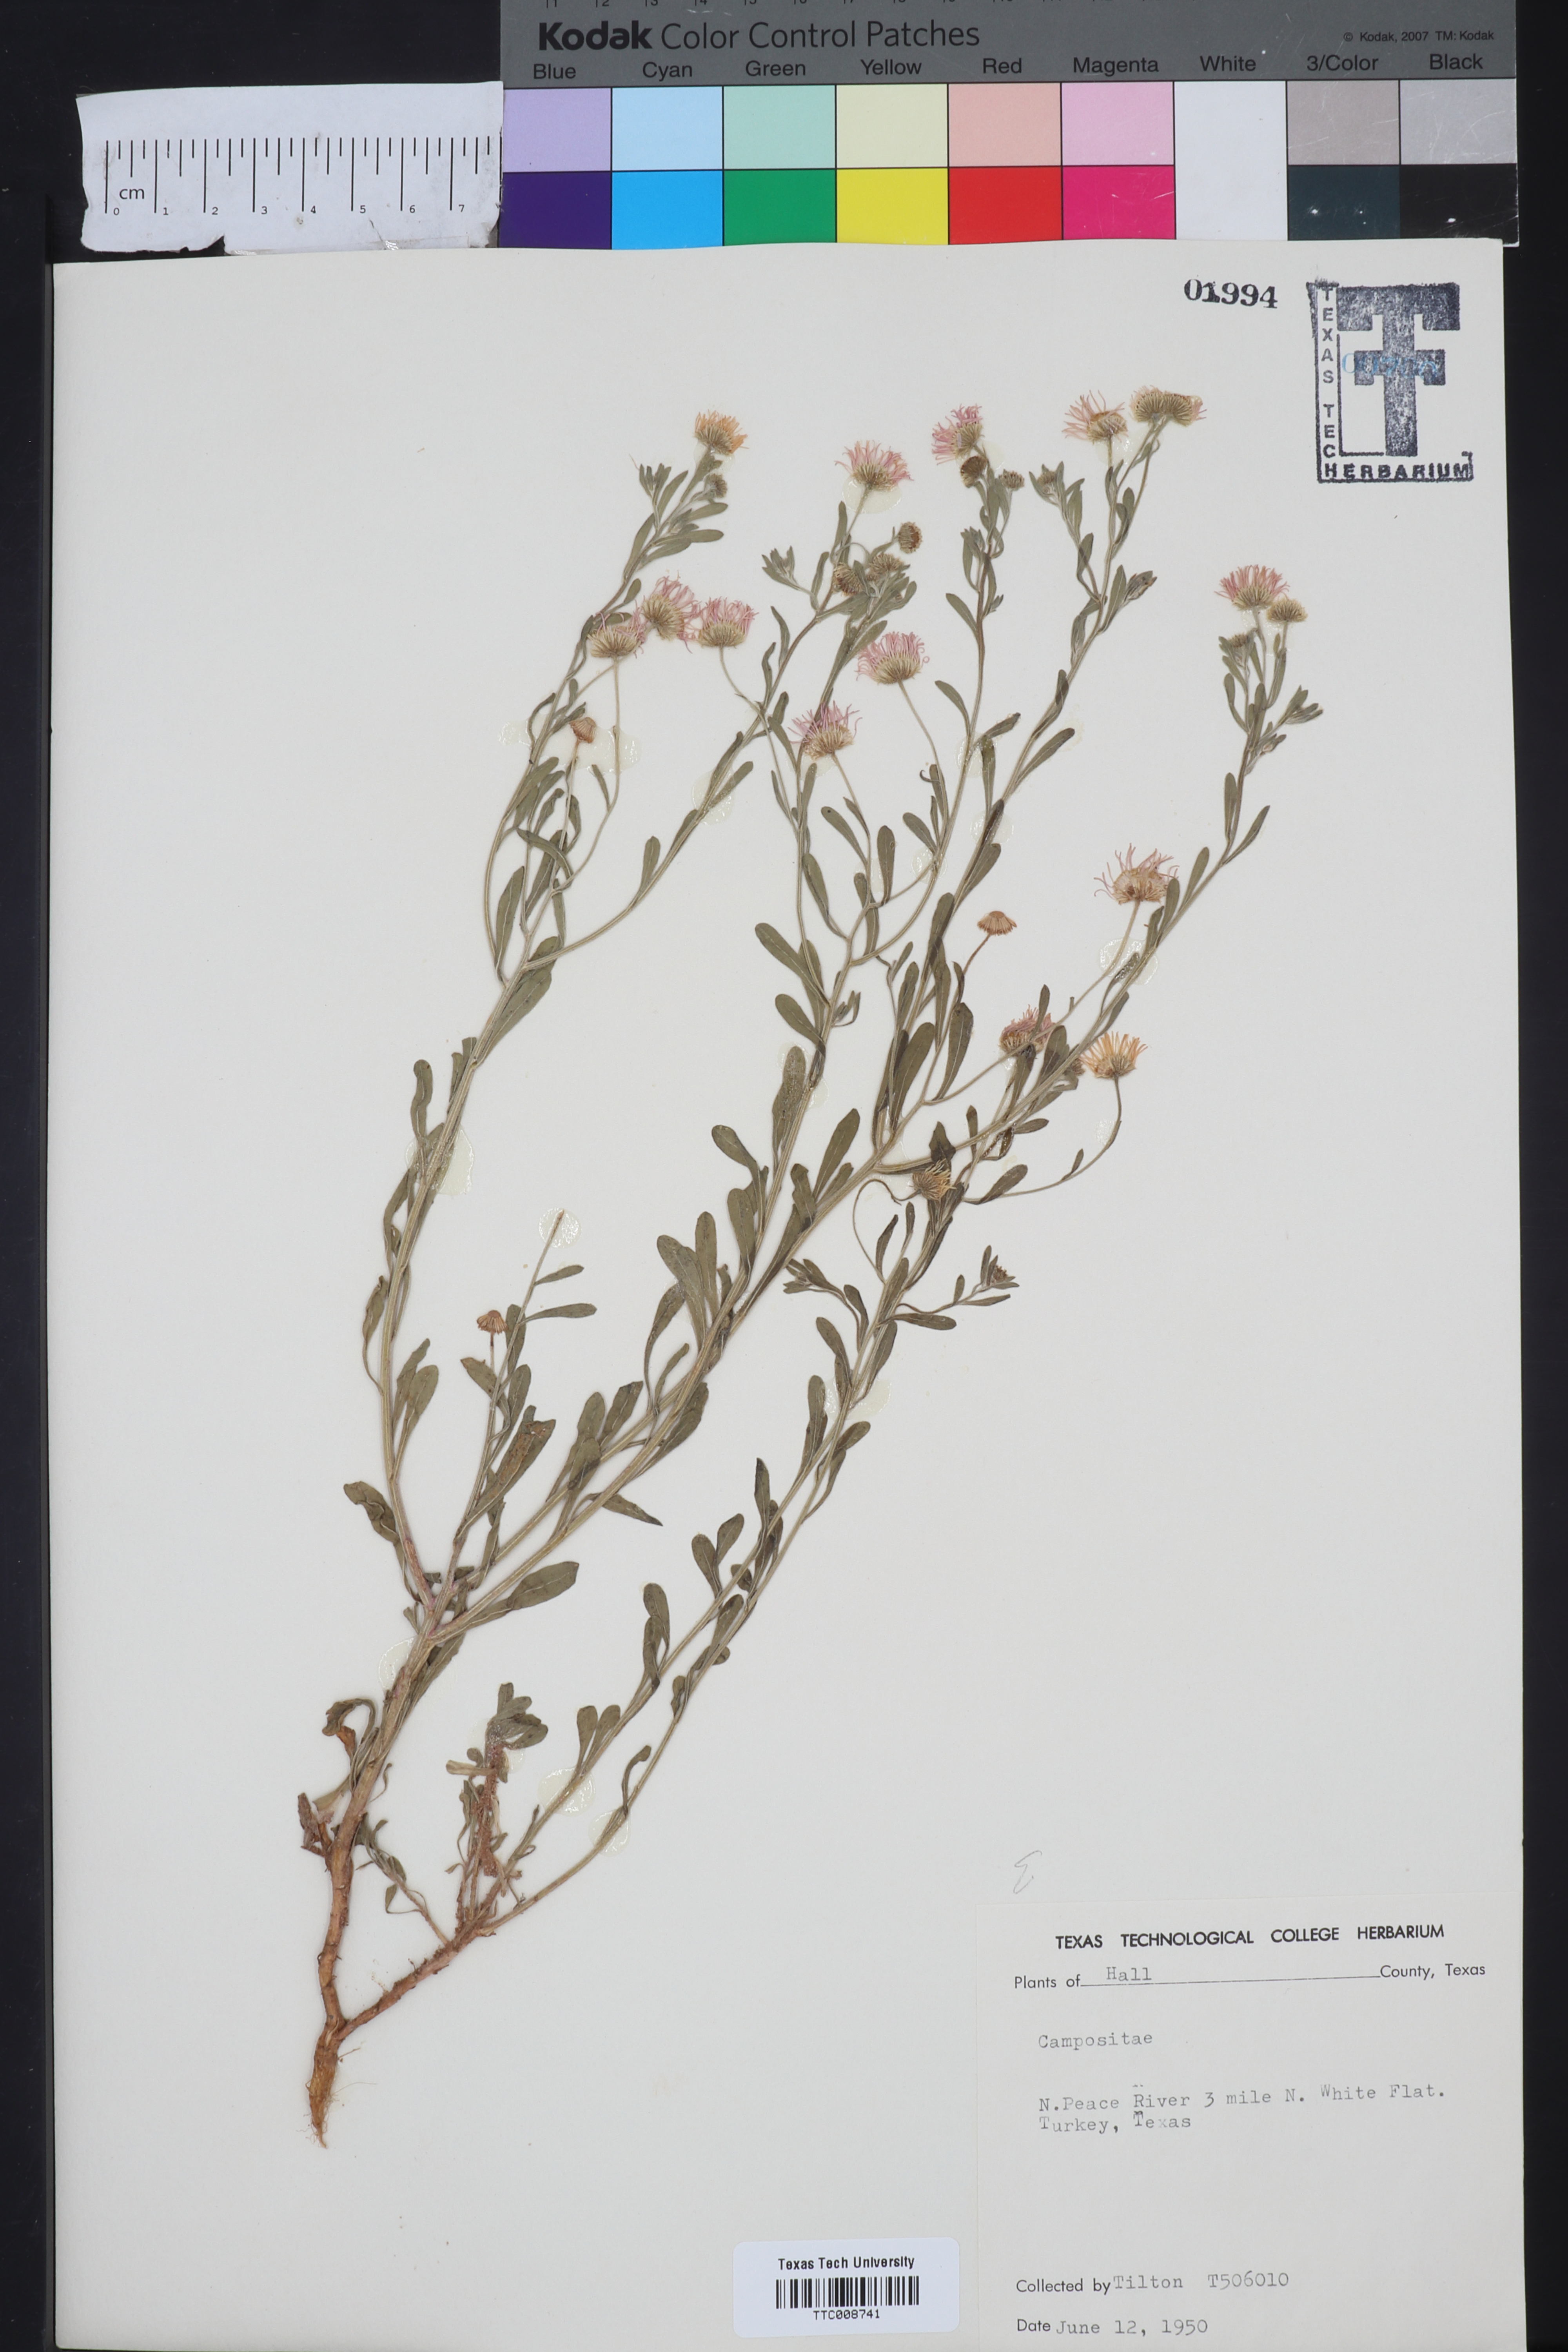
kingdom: Plantae
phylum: Tracheophyta
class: Magnoliopsida
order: Asterales
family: Asteraceae
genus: Erigeron
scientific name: Erigeron
